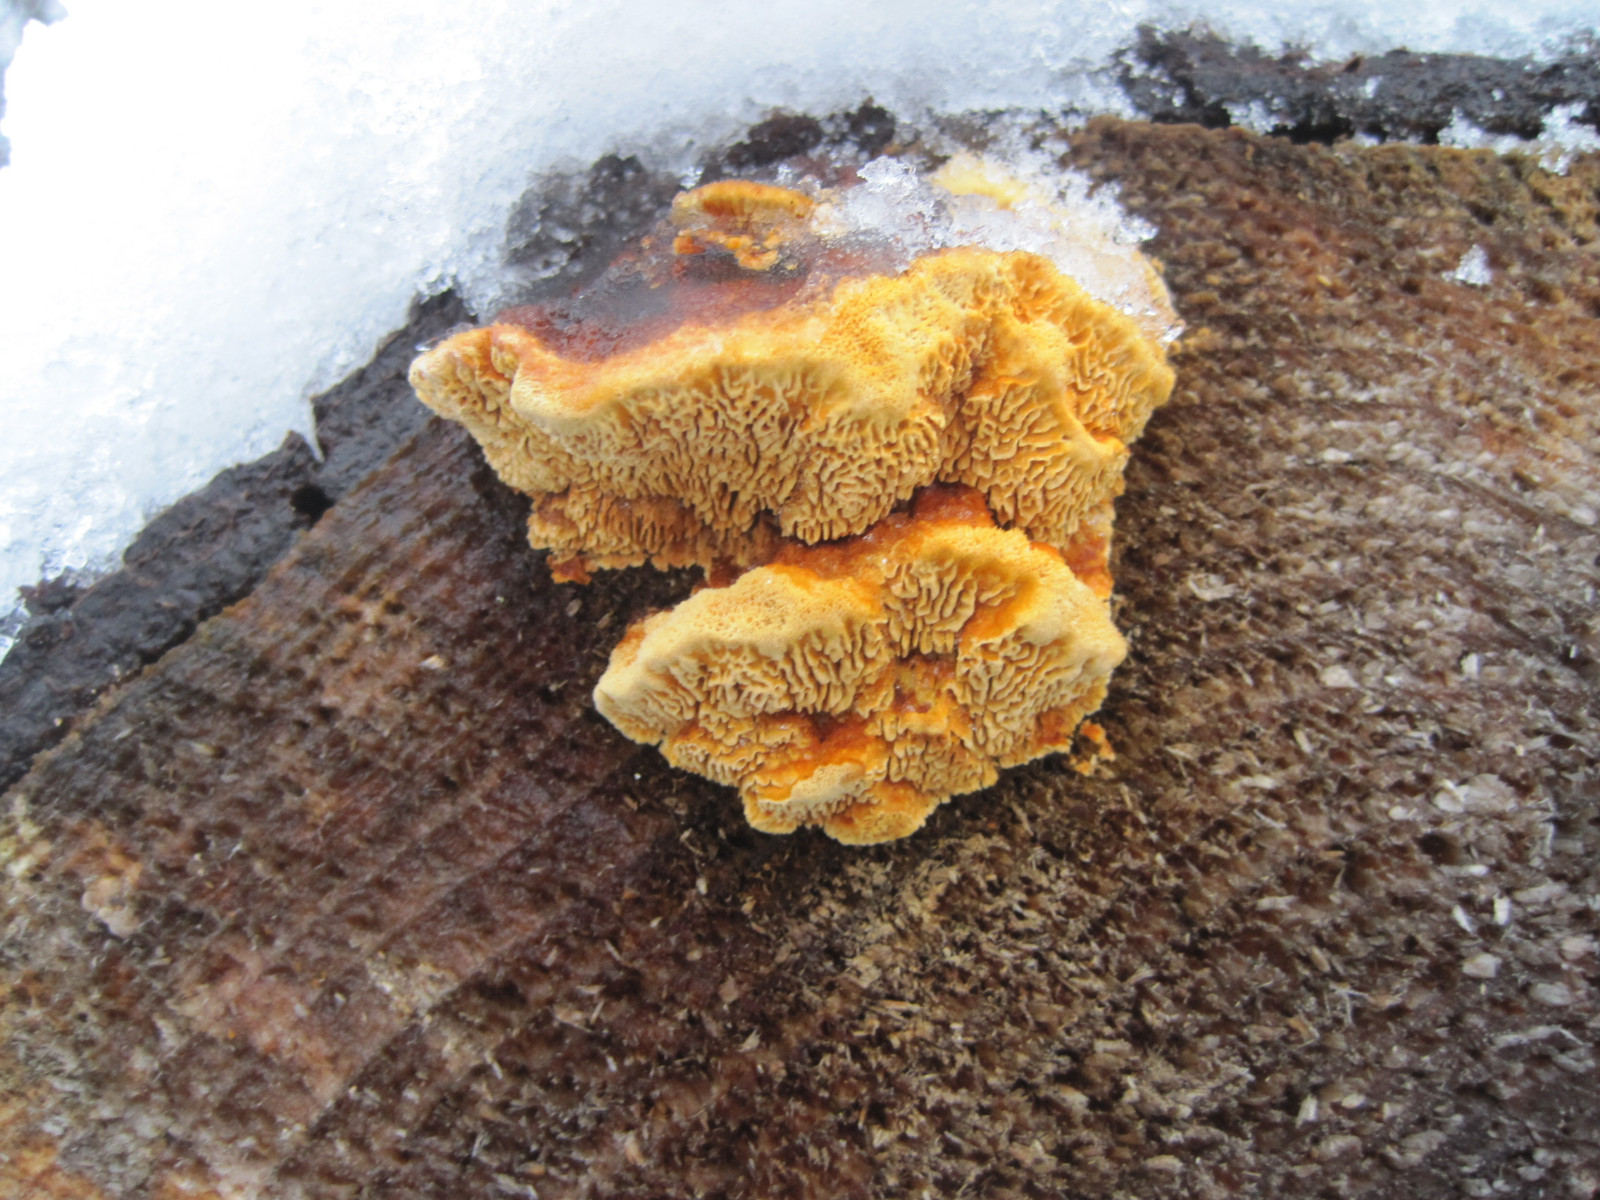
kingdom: Fungi
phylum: Basidiomycota
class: Agaricomycetes
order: Gloeophyllales
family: Gloeophyllaceae
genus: Gloeophyllum
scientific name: Gloeophyllum odoratum
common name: duftende korkhat
